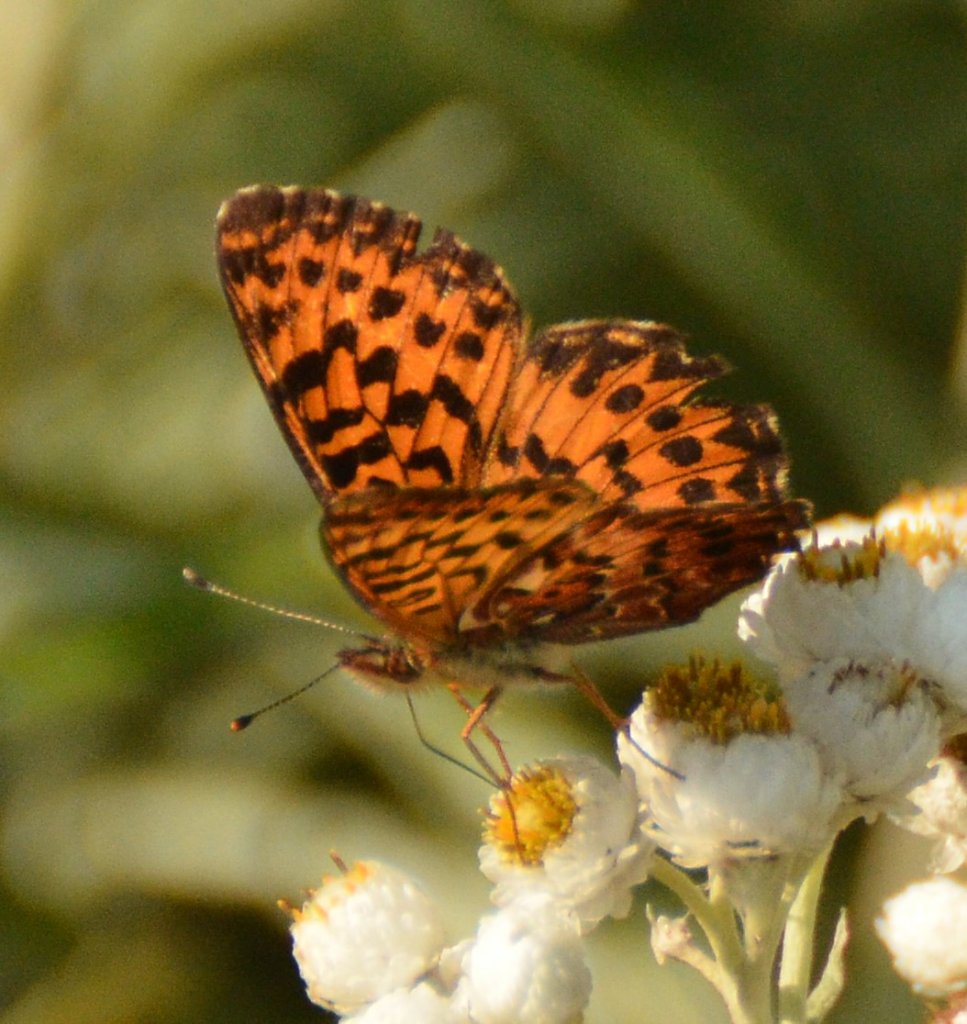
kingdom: Animalia
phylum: Arthropoda
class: Insecta
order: Lepidoptera
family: Nymphalidae
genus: Boloria
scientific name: Boloria chariclea
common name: Arctic Fritillary
